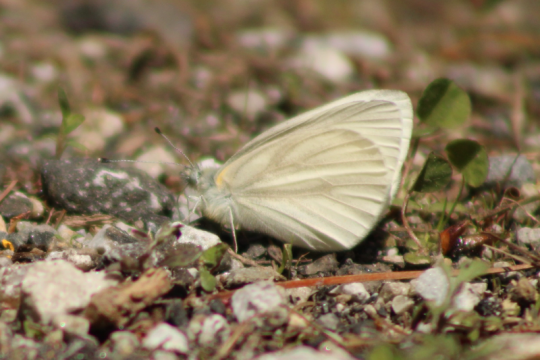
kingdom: Animalia
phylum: Arthropoda
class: Insecta
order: Lepidoptera
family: Pieridae
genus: Pieris
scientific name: Pieris virginiensis
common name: West Virginia White
